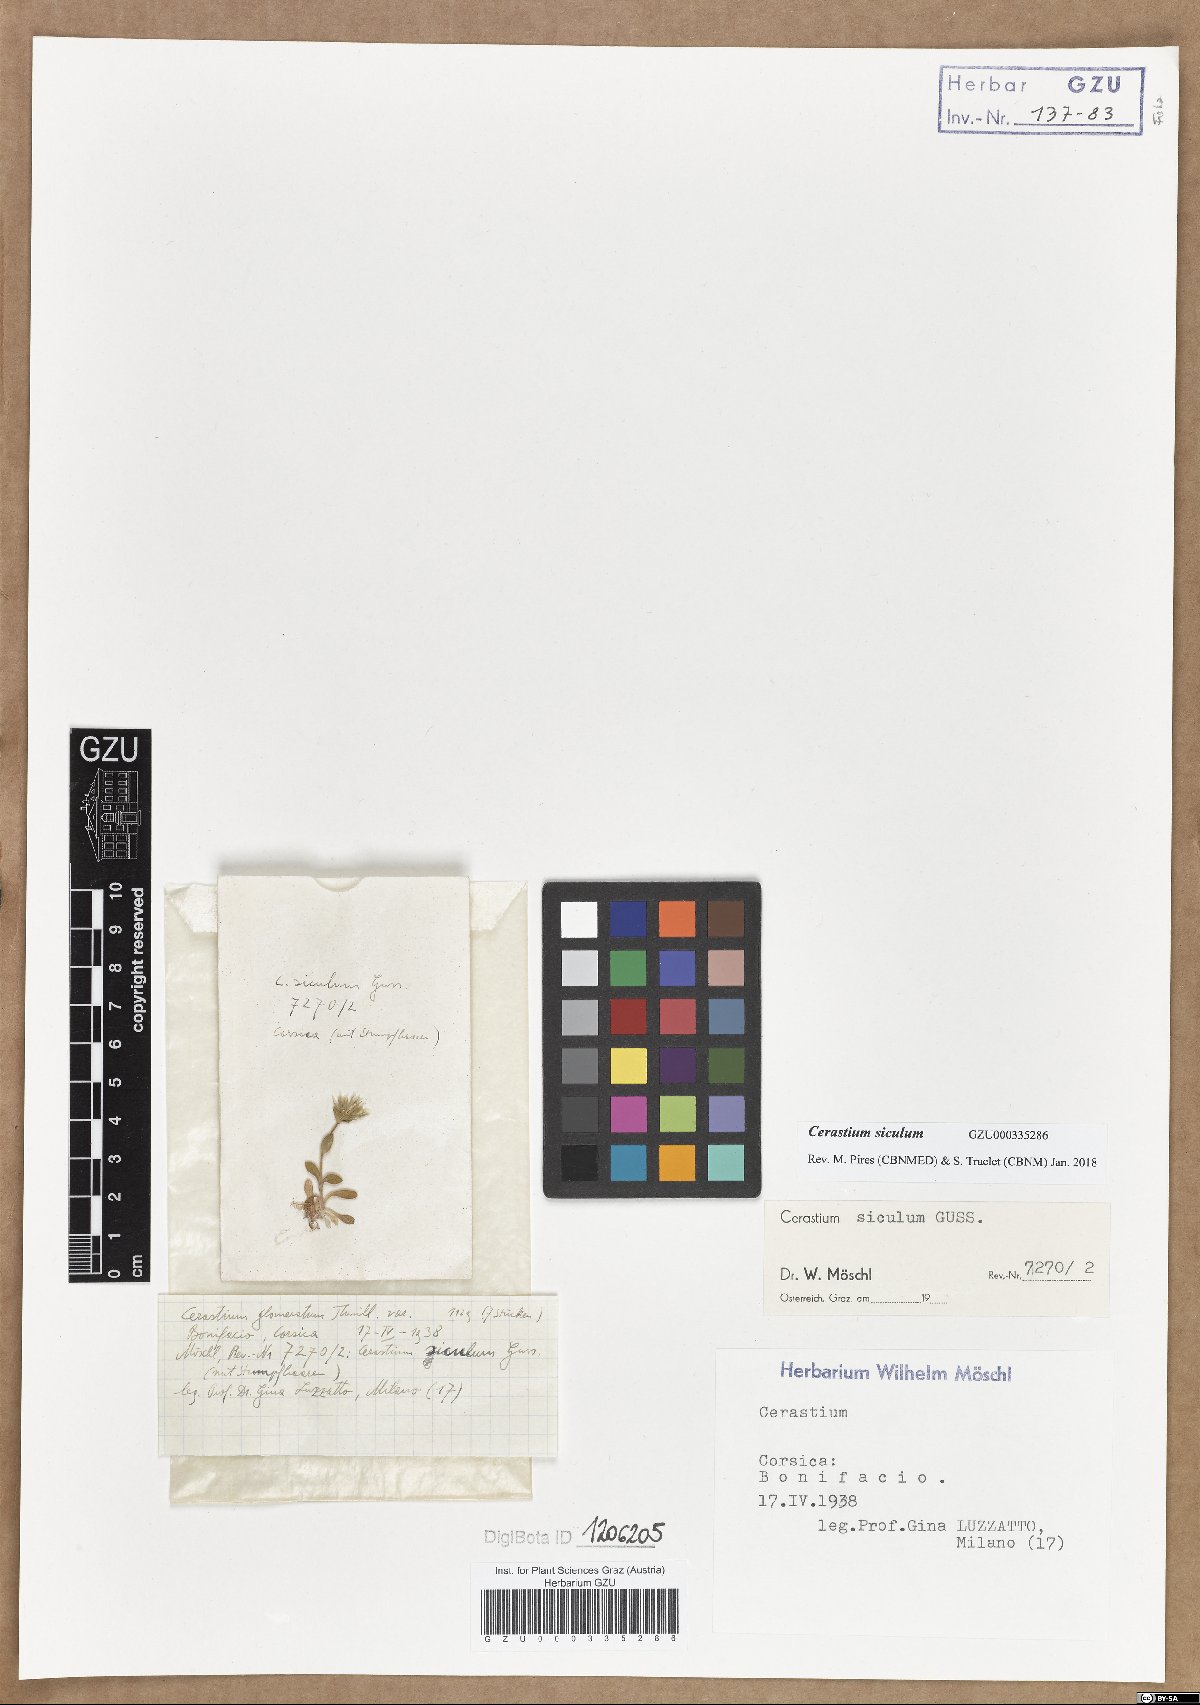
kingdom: Plantae
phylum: Tracheophyta
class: Magnoliopsida
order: Caryophyllales
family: Caryophyllaceae
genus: Cerastium
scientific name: Cerastium siculum
